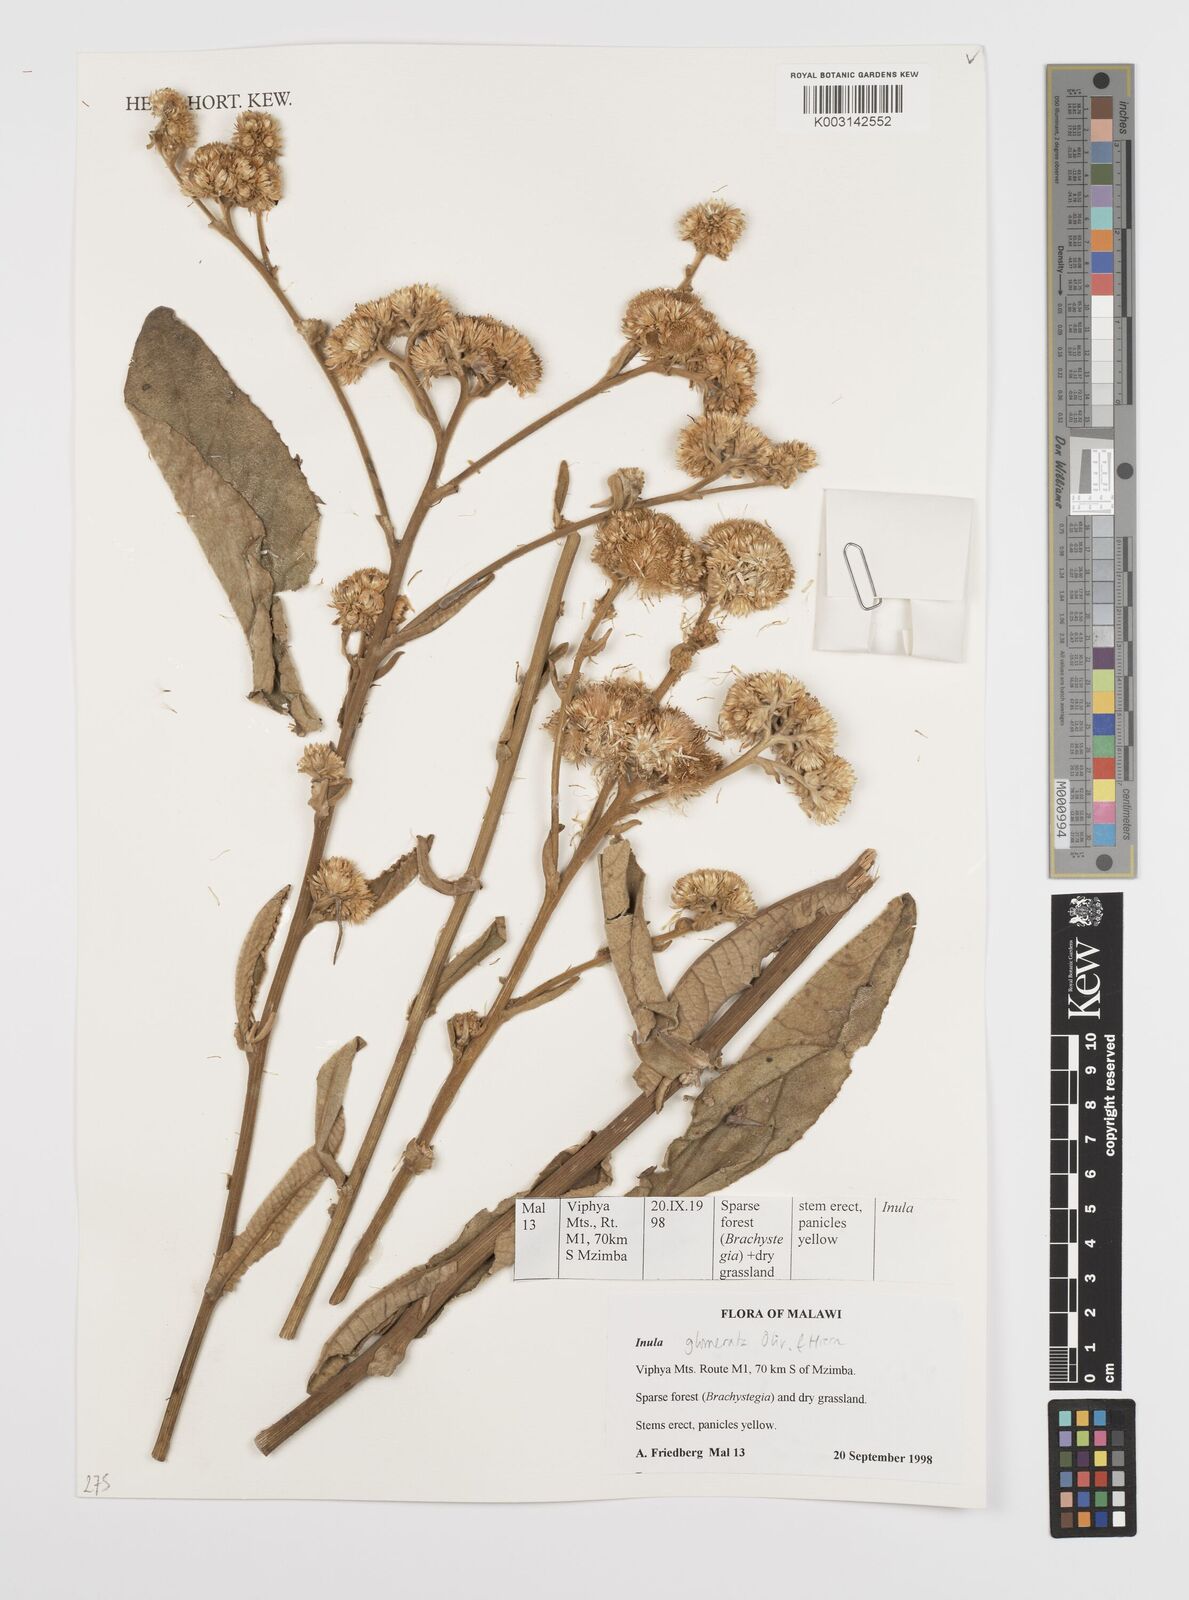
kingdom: Plantae
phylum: Tracheophyta
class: Magnoliopsida
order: Asterales
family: Asteraceae
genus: Inula
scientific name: Inula glomerata
